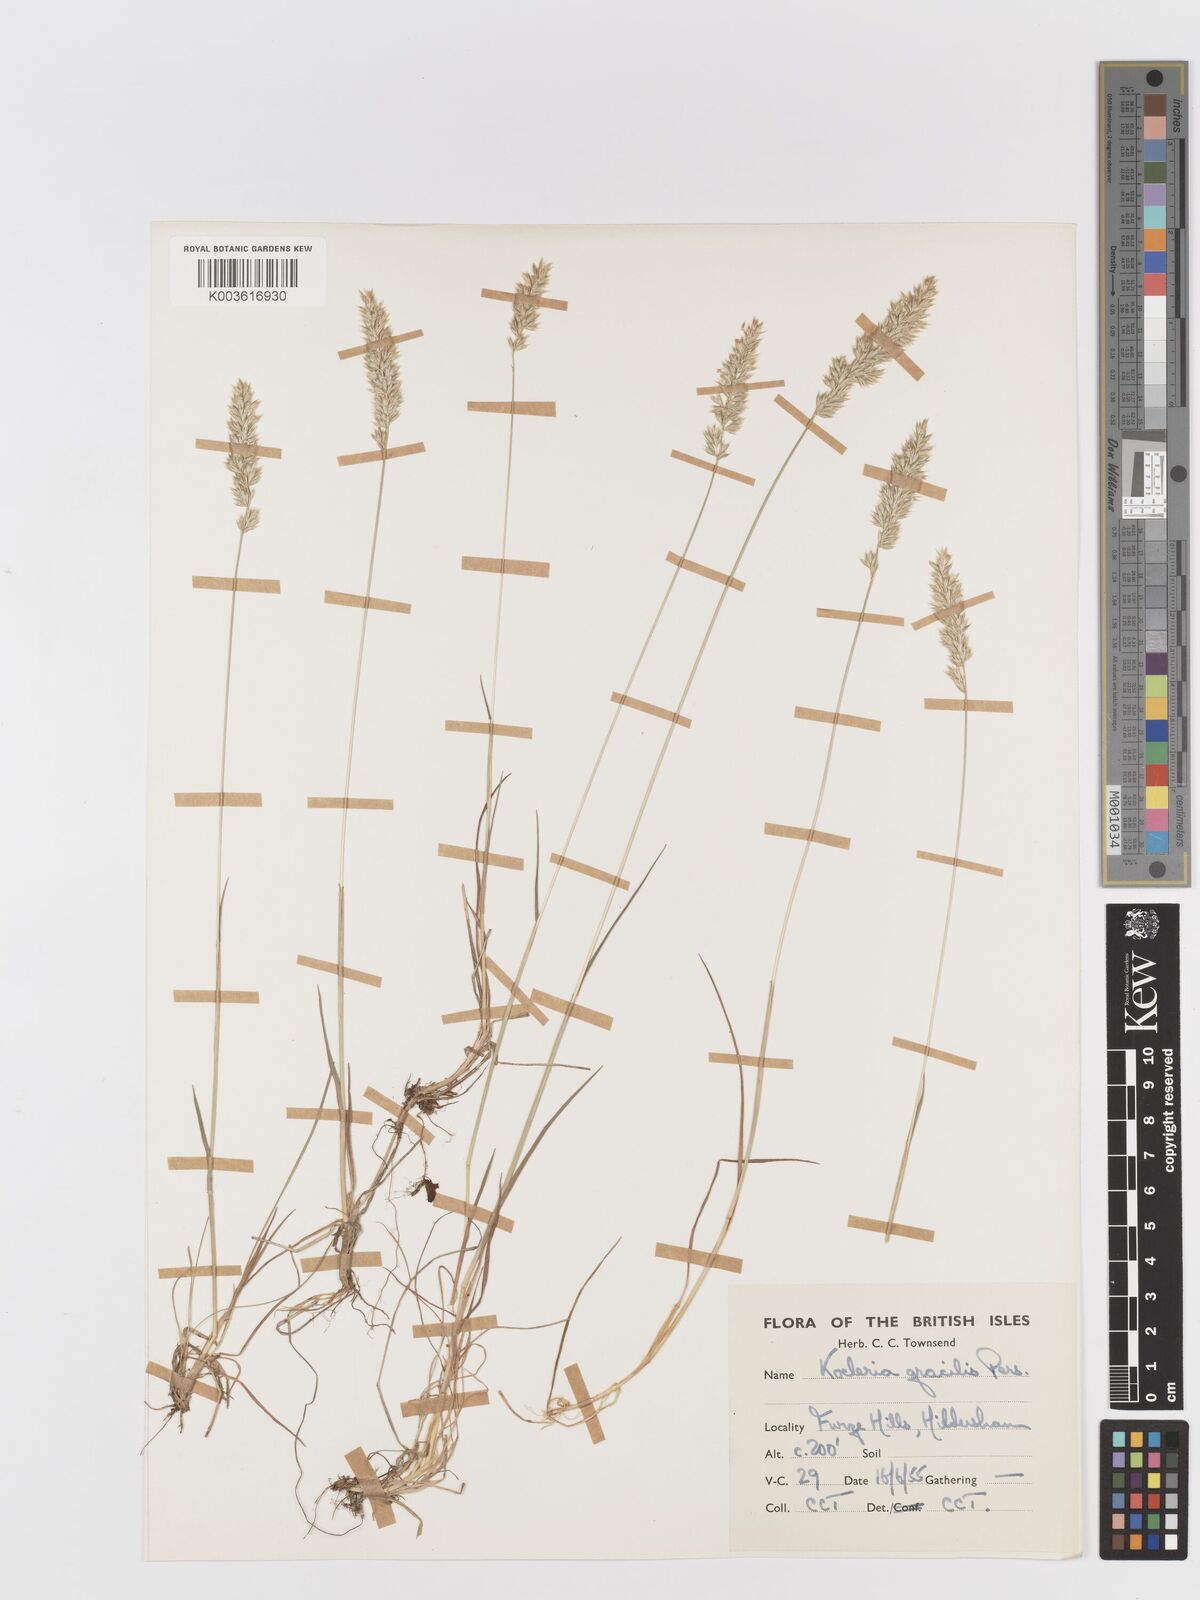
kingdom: Plantae
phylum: Tracheophyta
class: Liliopsida
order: Poales
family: Poaceae
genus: Koeleria
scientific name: Koeleria macrantha
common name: Crested hair-grass
